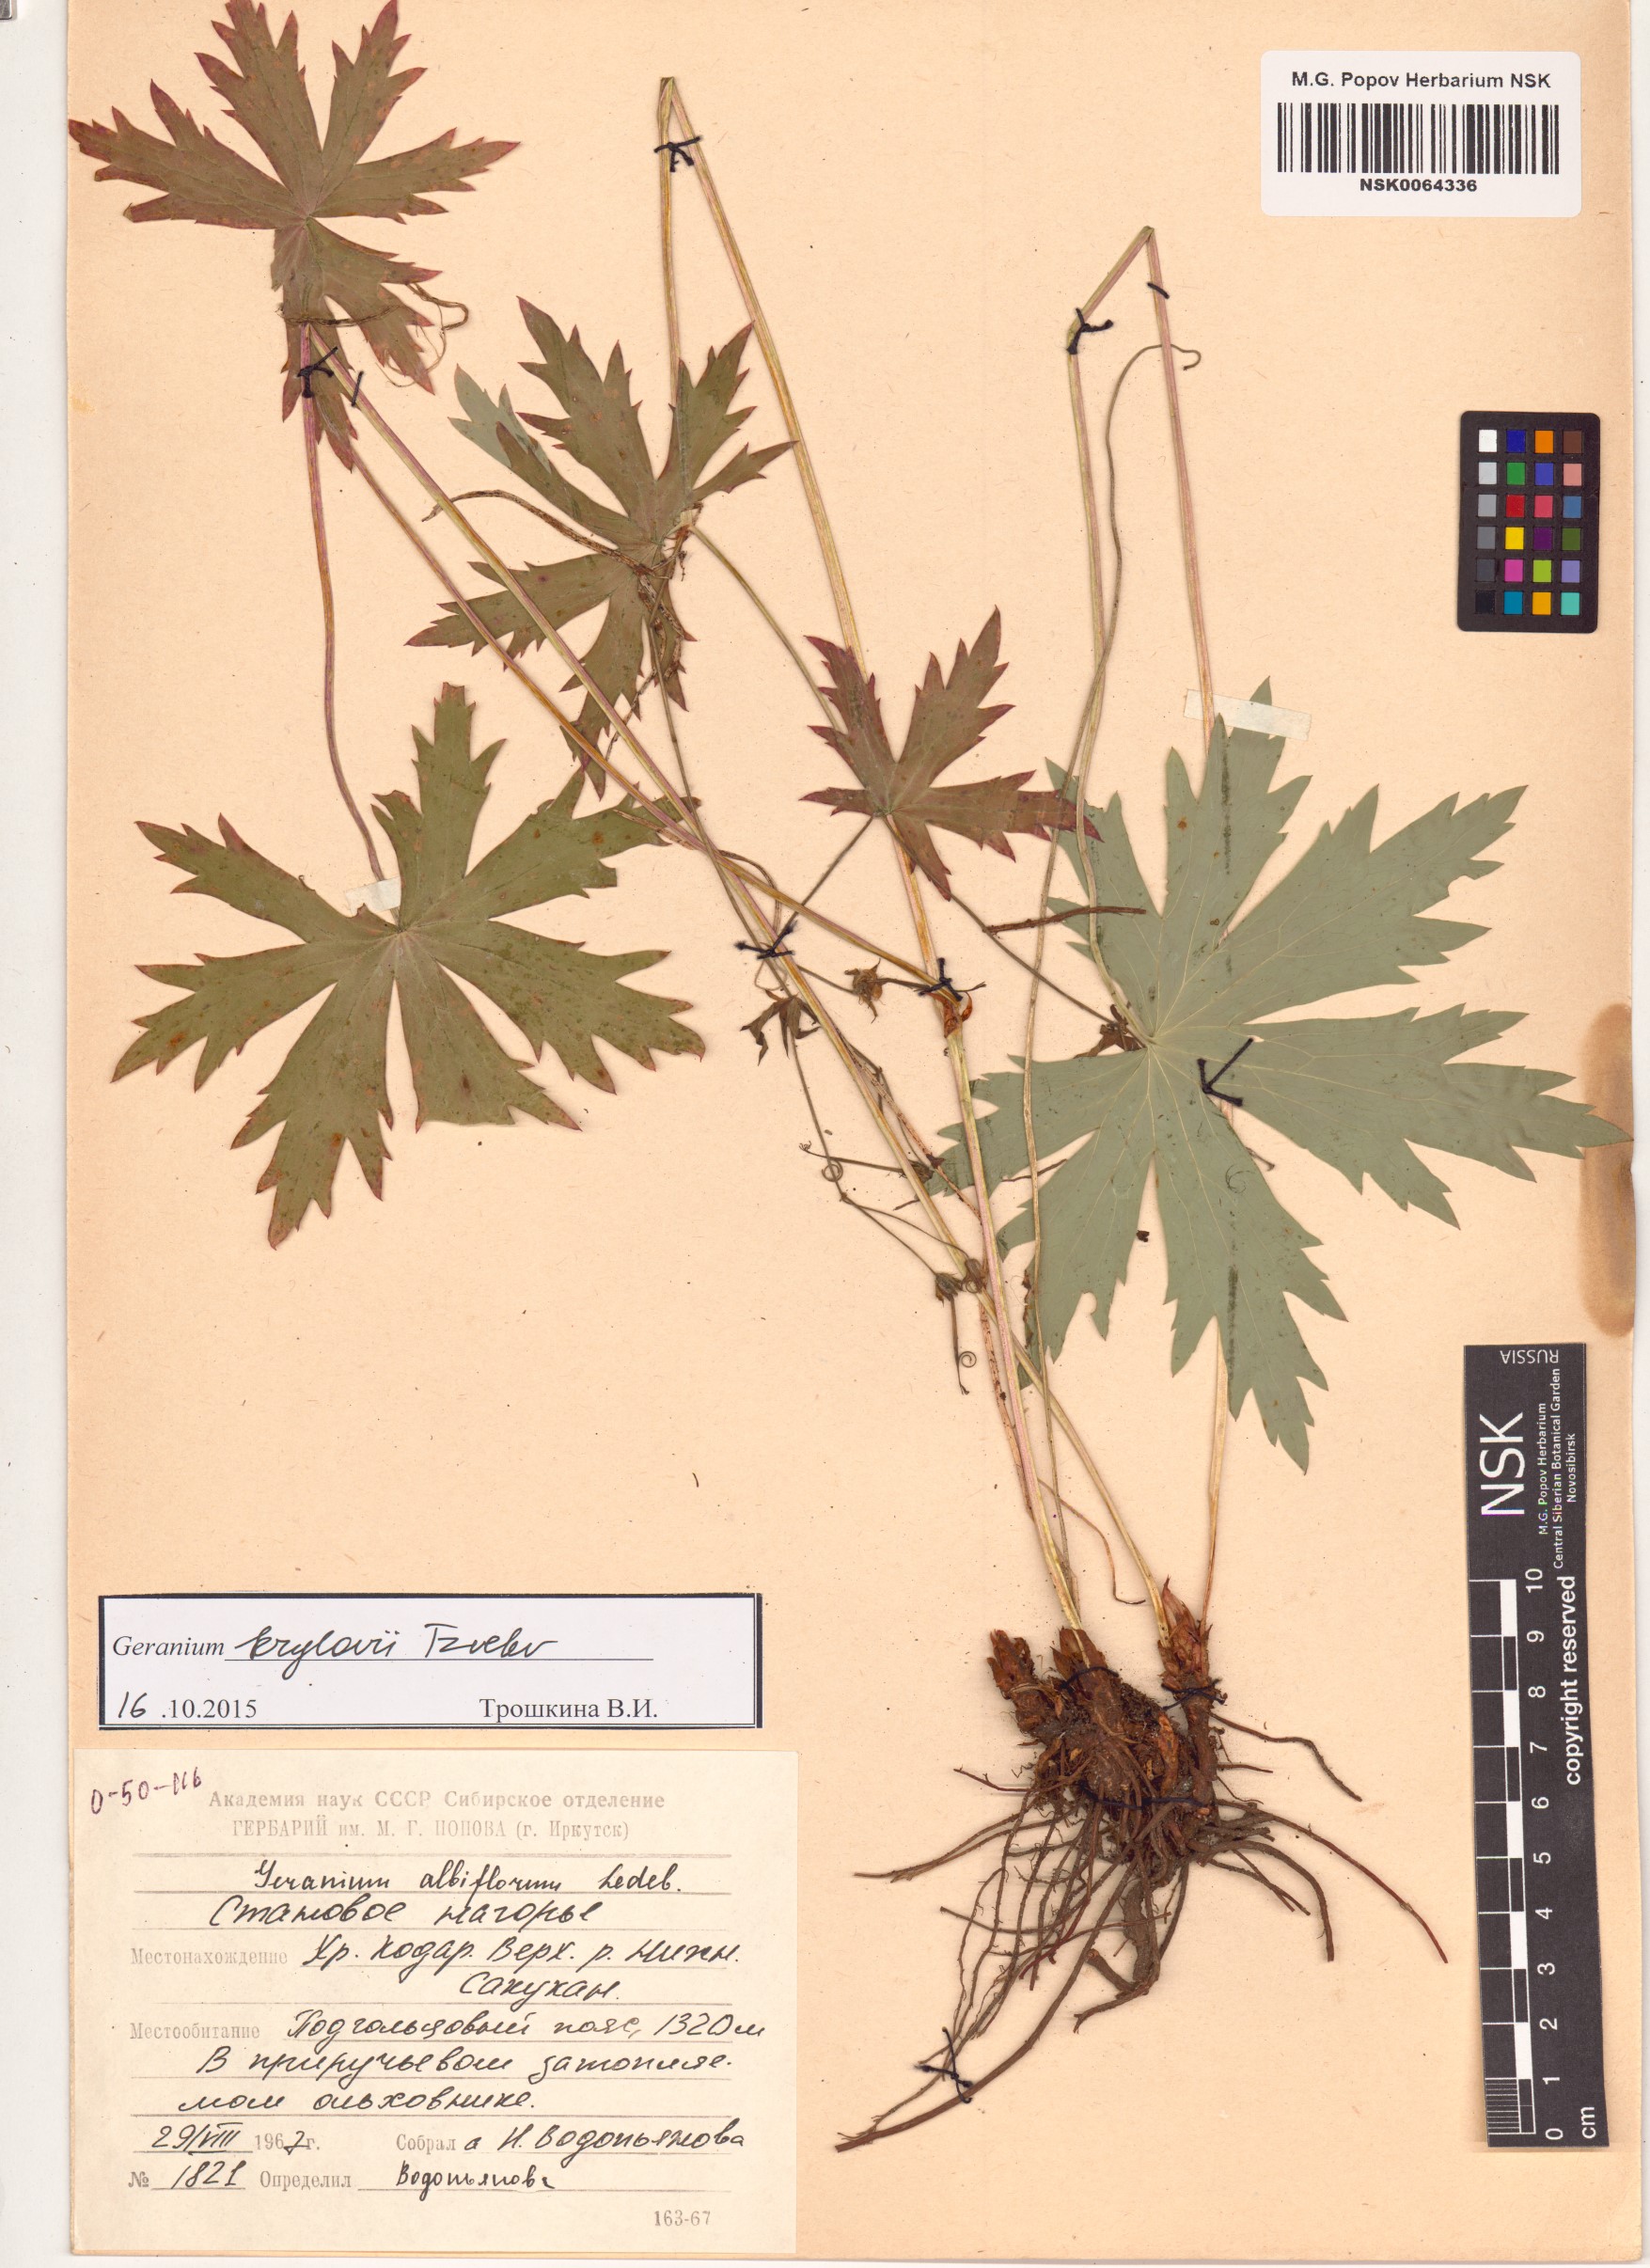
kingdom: Plantae
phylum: Tracheophyta
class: Magnoliopsida
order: Geraniales
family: Geraniaceae
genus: Geranium
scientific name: Geranium sylvaticum
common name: Wood crane's-bill
